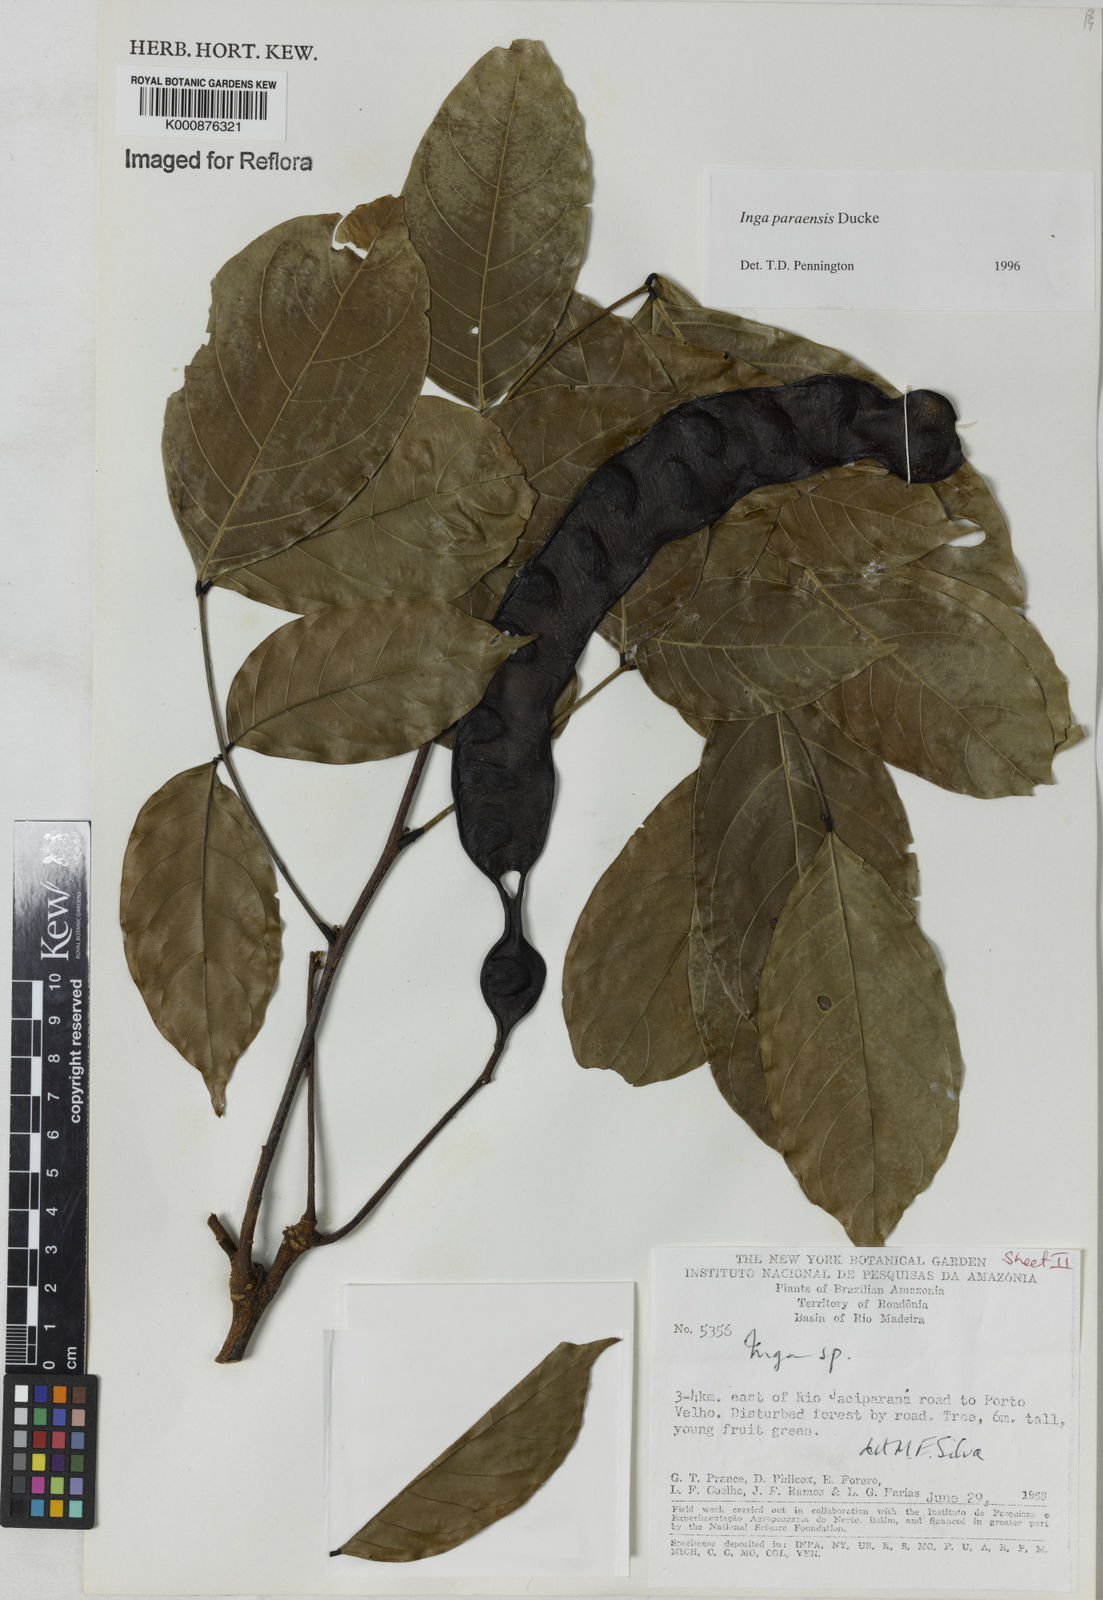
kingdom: Plantae
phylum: Tracheophyta
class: Magnoliopsida
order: Fabales
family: Fabaceae
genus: Inga
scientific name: Inga paraensis
